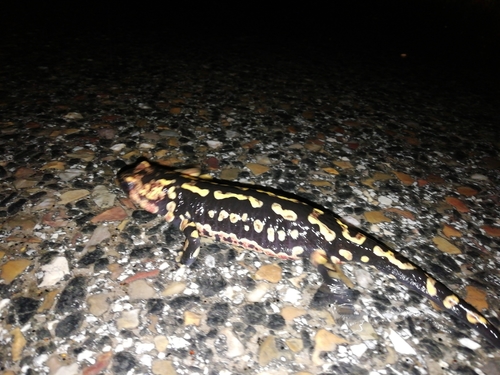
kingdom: Animalia
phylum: Chordata
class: Amphibia
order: Caudata
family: Salamandridae
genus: Salamandra
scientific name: Salamandra salamandra
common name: Fire salamander
